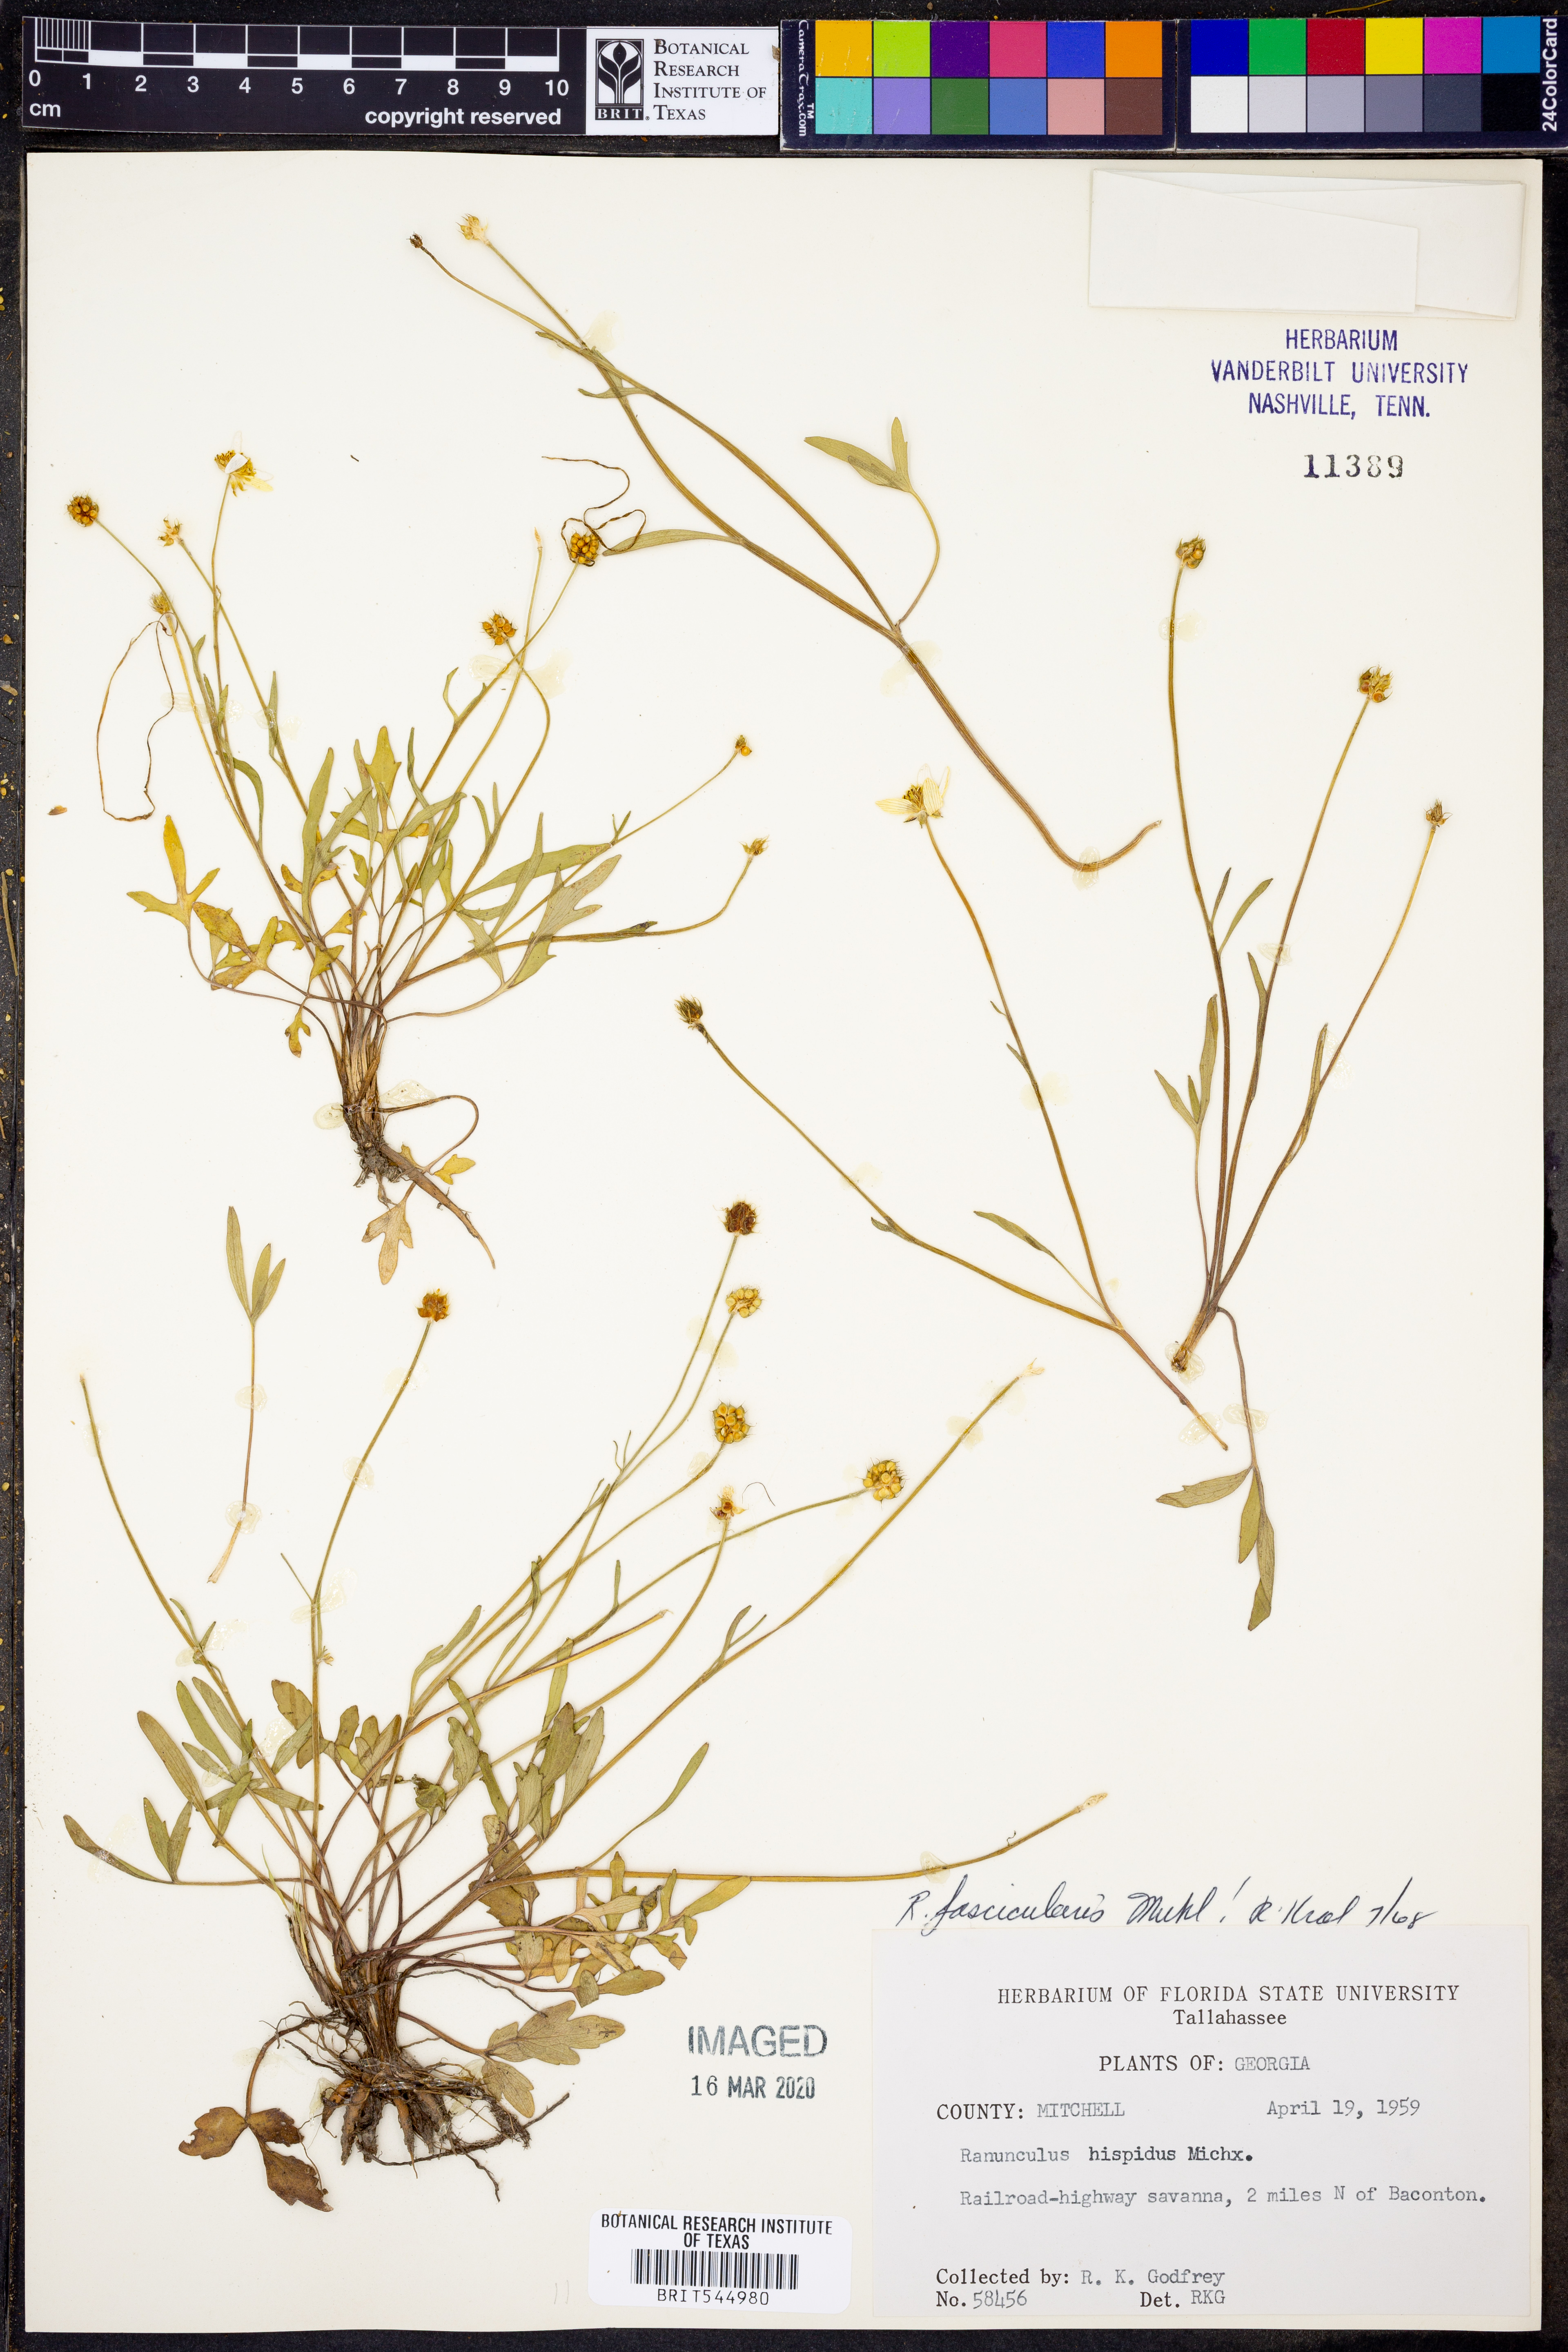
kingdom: Plantae
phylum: Tracheophyta
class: Magnoliopsida
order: Ranunculales
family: Ranunculaceae
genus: Ranunculus
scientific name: Ranunculus fascicularis
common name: Early buttercup
